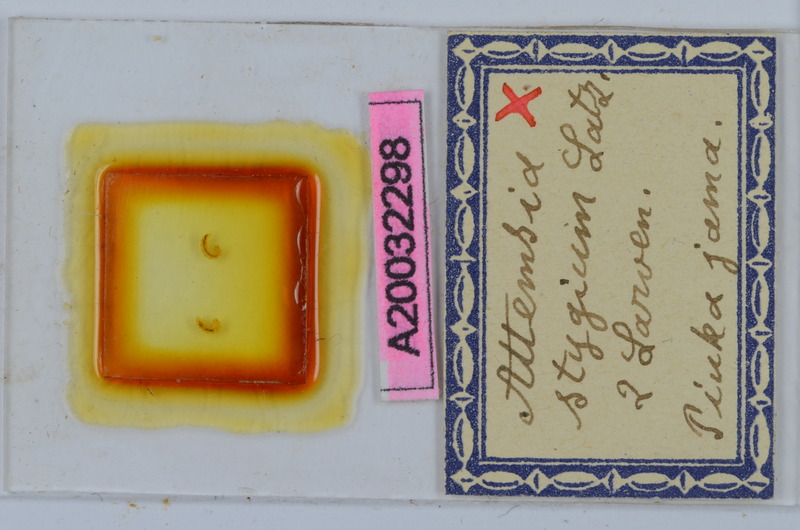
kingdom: Animalia
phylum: Arthropoda
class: Diplopoda
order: Chordeumatida
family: Attemsiidae
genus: Attemsia
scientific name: Attemsia stygia
